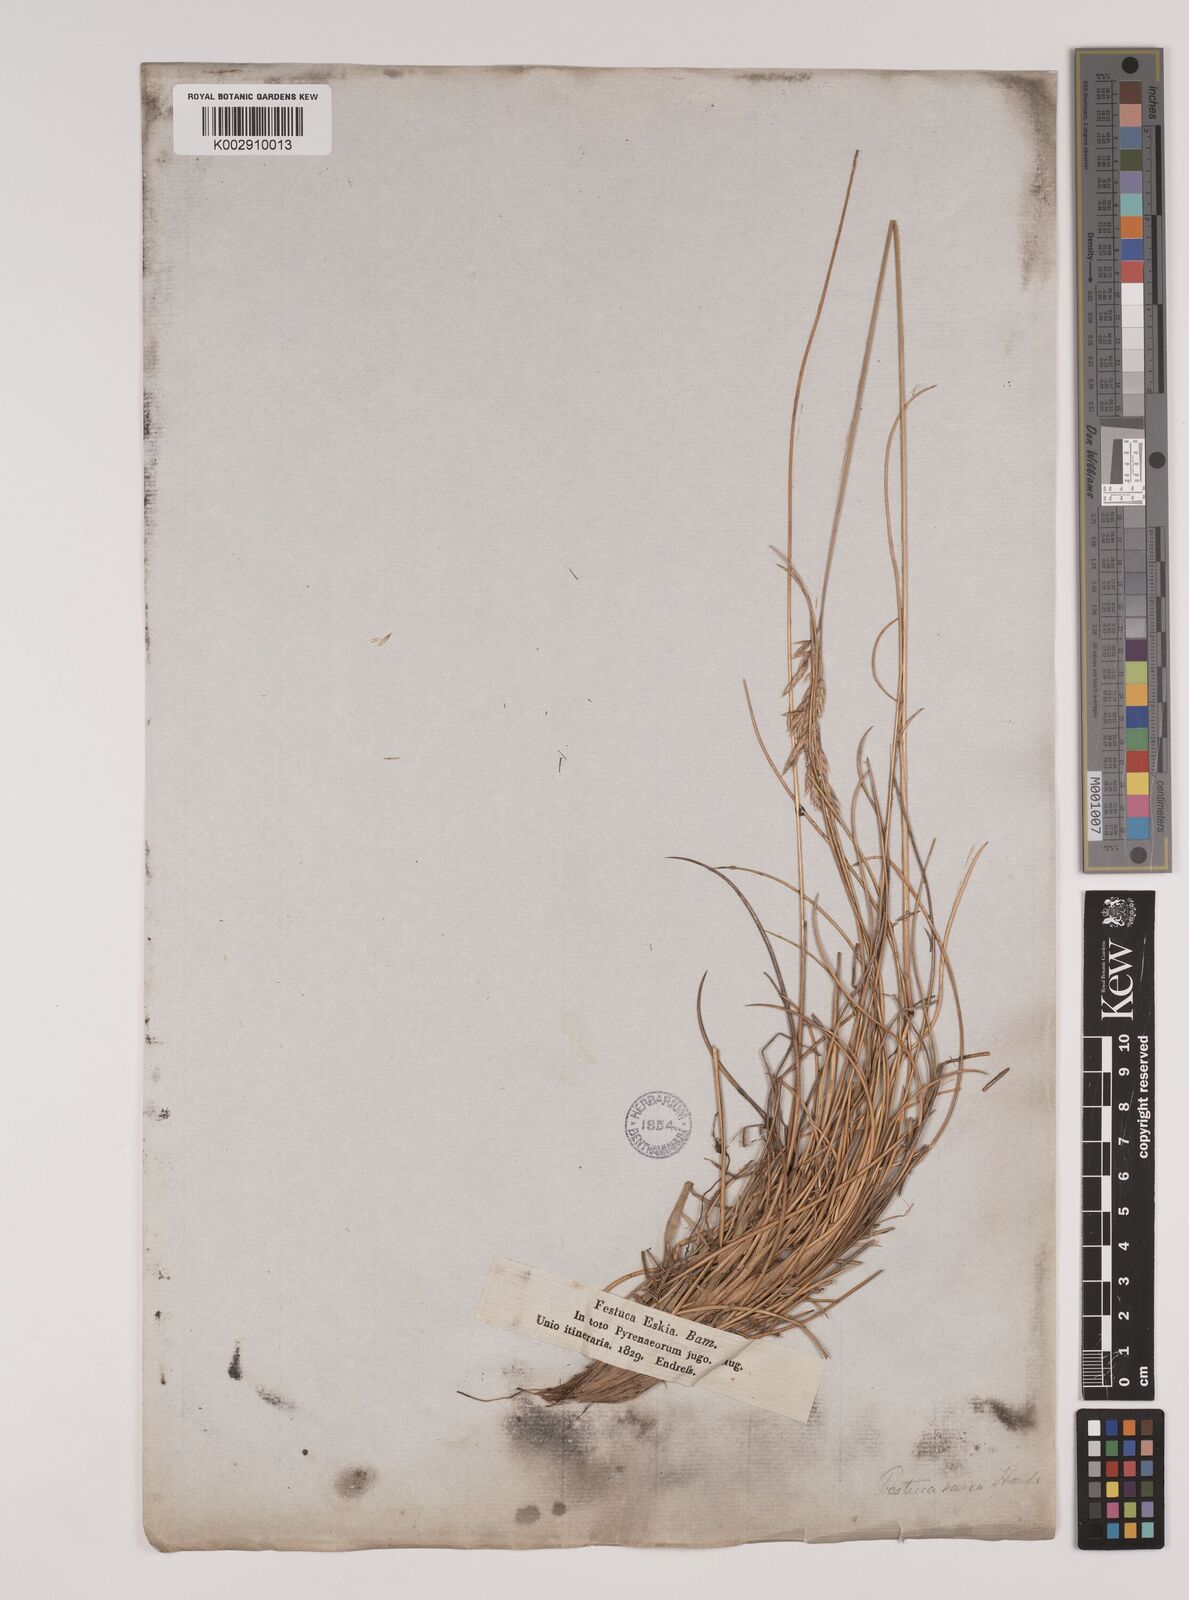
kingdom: Plantae
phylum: Tracheophyta
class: Liliopsida
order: Poales
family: Poaceae
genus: Festuca
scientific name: Festuca eskia
